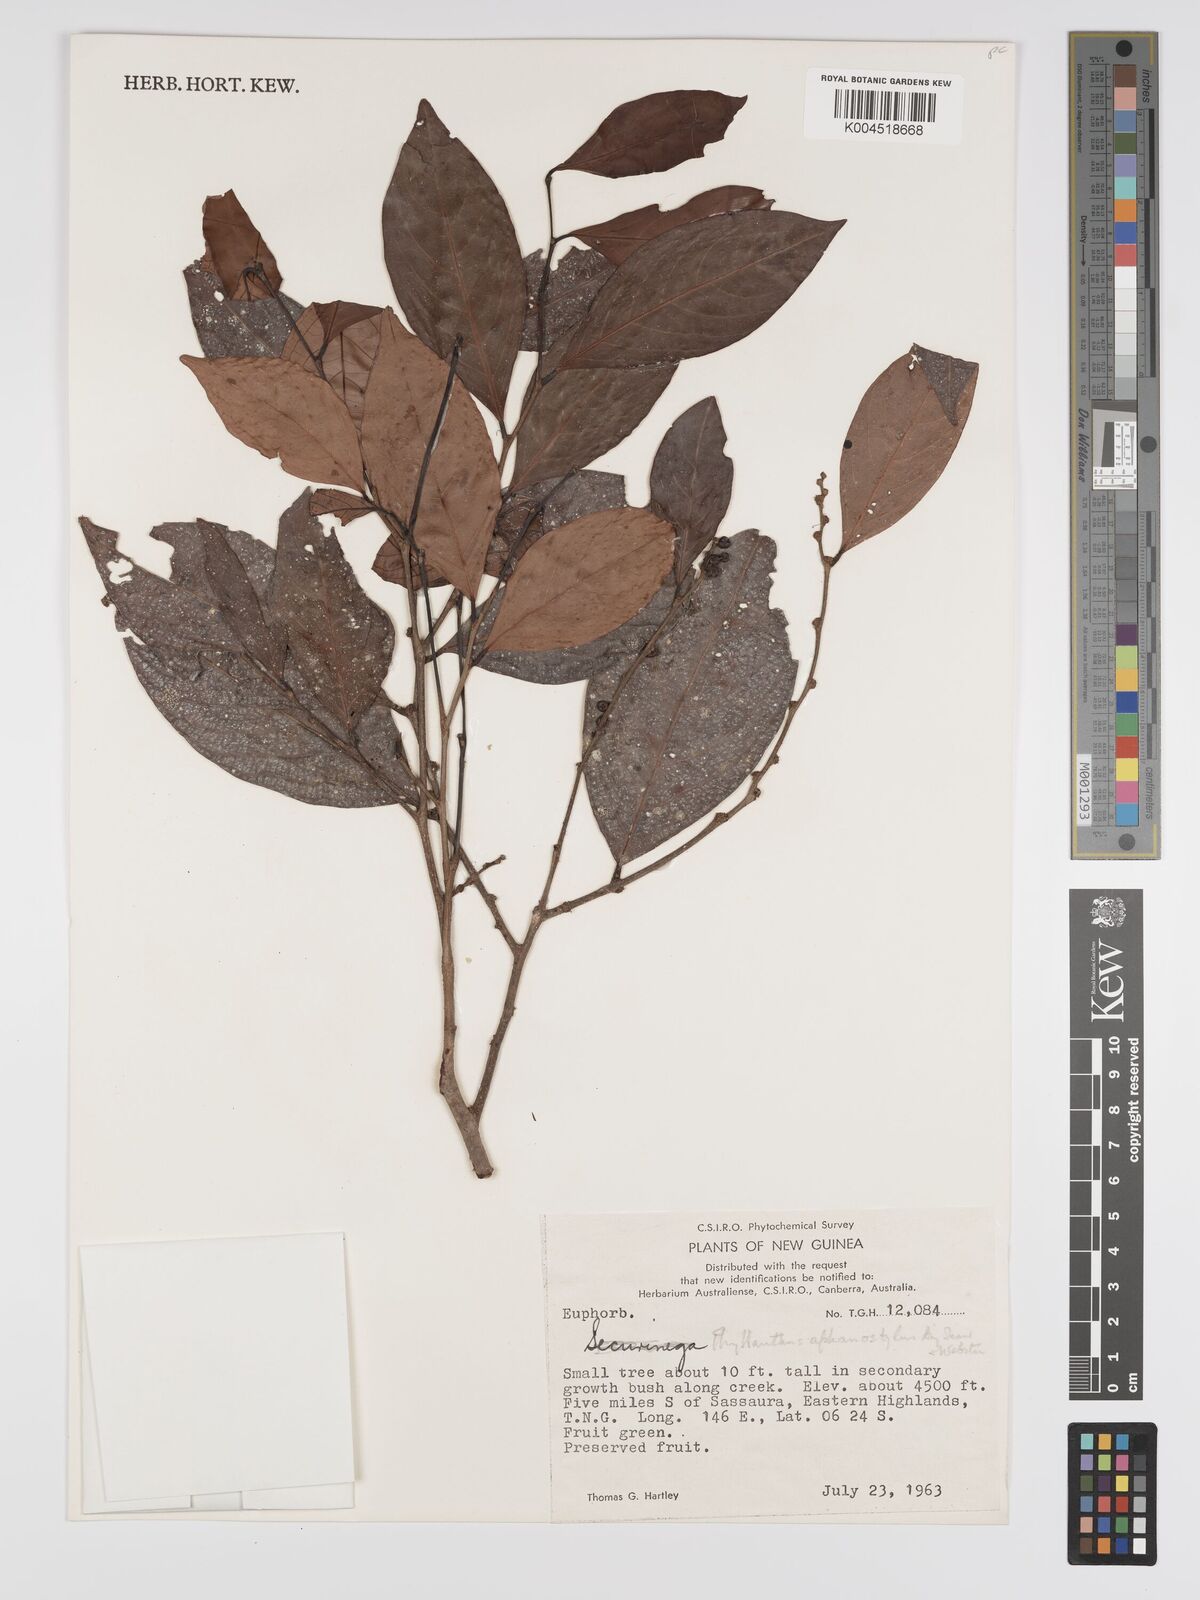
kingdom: Plantae
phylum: Tracheophyta
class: Magnoliopsida
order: Malpighiales
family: Phyllanthaceae
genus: Phyllanthus
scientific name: Phyllanthus aphanostylus
